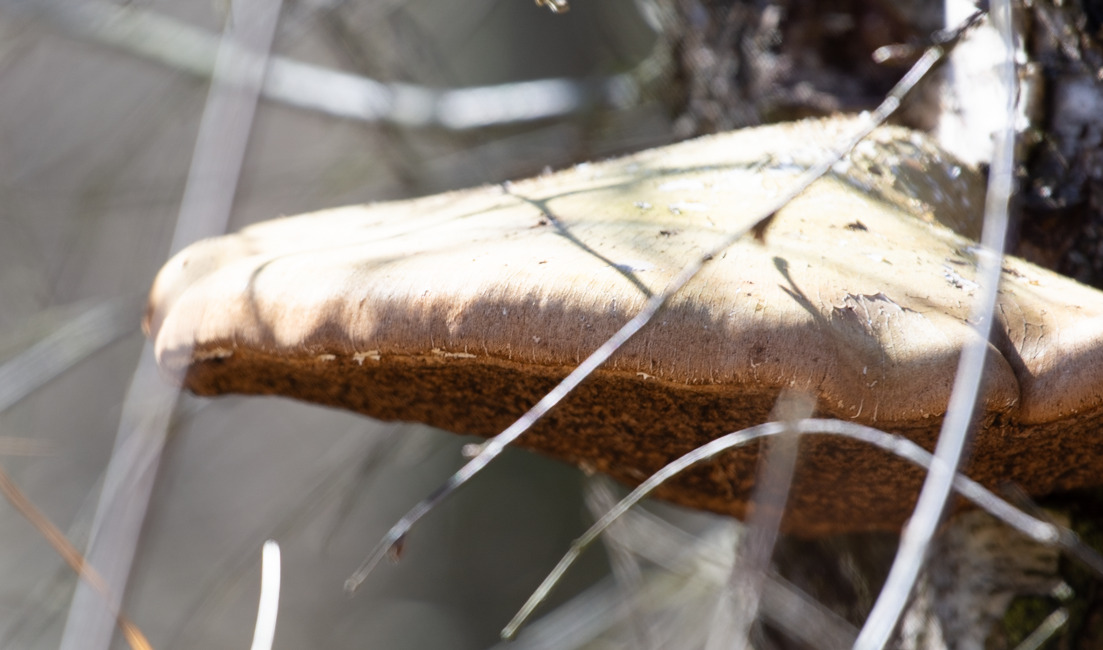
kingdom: Fungi
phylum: Basidiomycota
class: Agaricomycetes
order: Polyporales
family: Fomitopsidaceae
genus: Fomitopsis
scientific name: Fomitopsis betulina
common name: Birkeporesvamp
